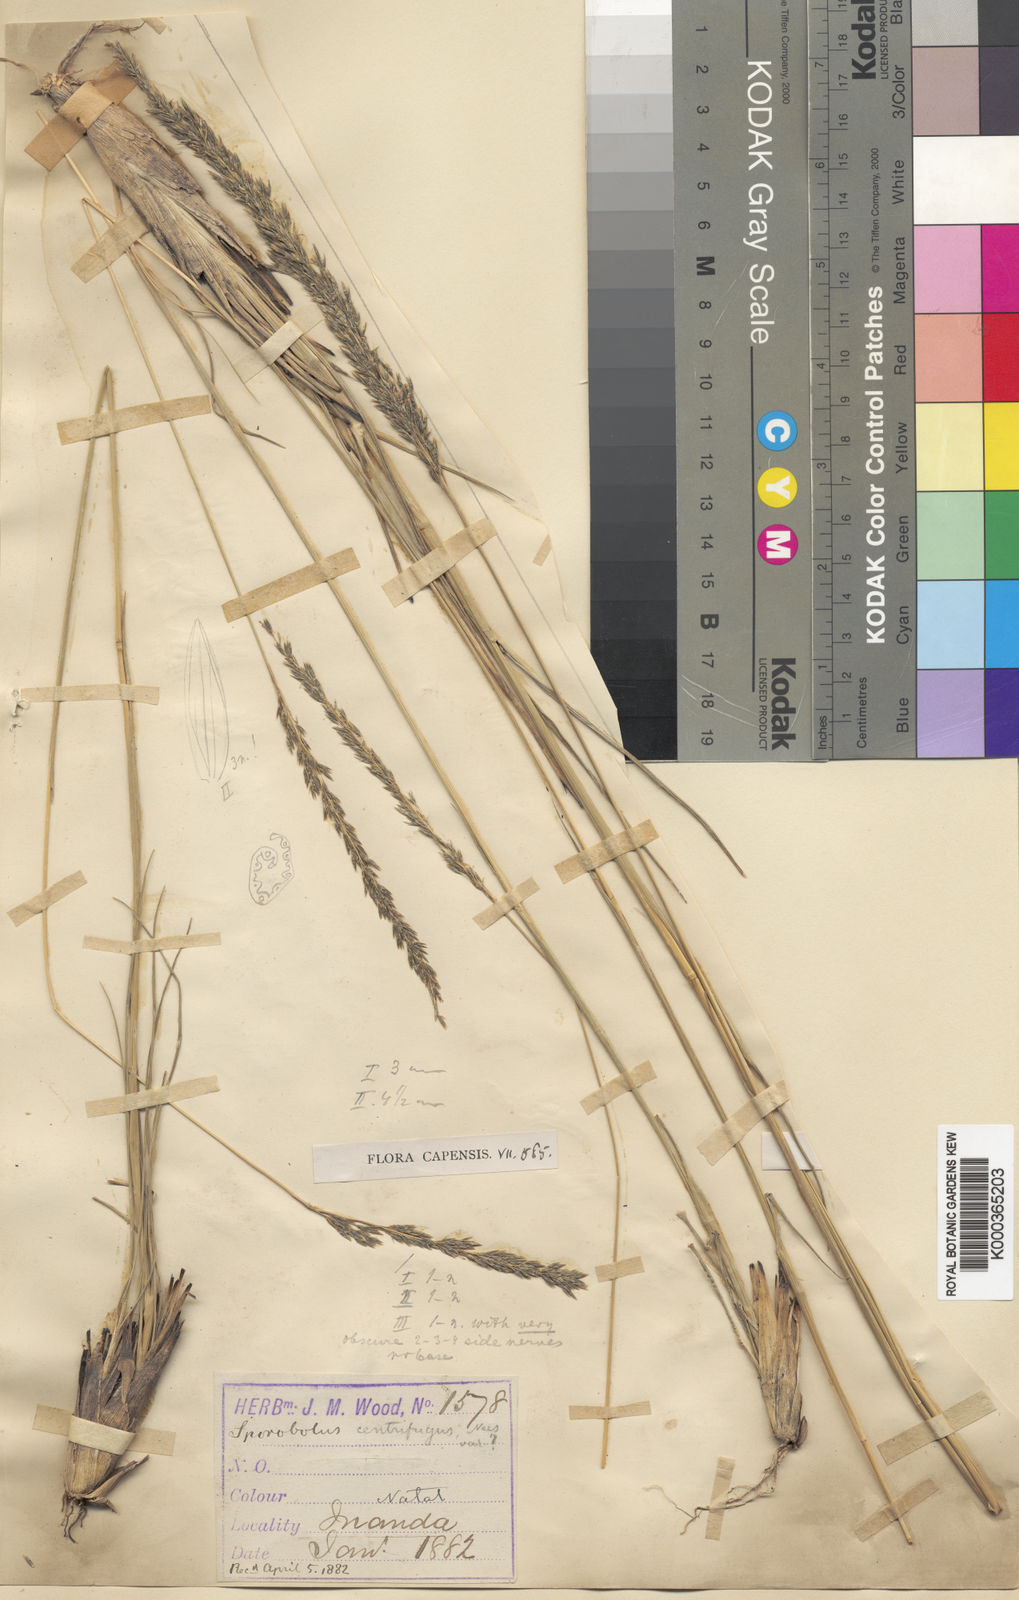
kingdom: Plantae
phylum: Tracheophyta
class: Liliopsida
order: Poales
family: Poaceae
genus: Sporobolus
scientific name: Sporobolus rigidifolius
